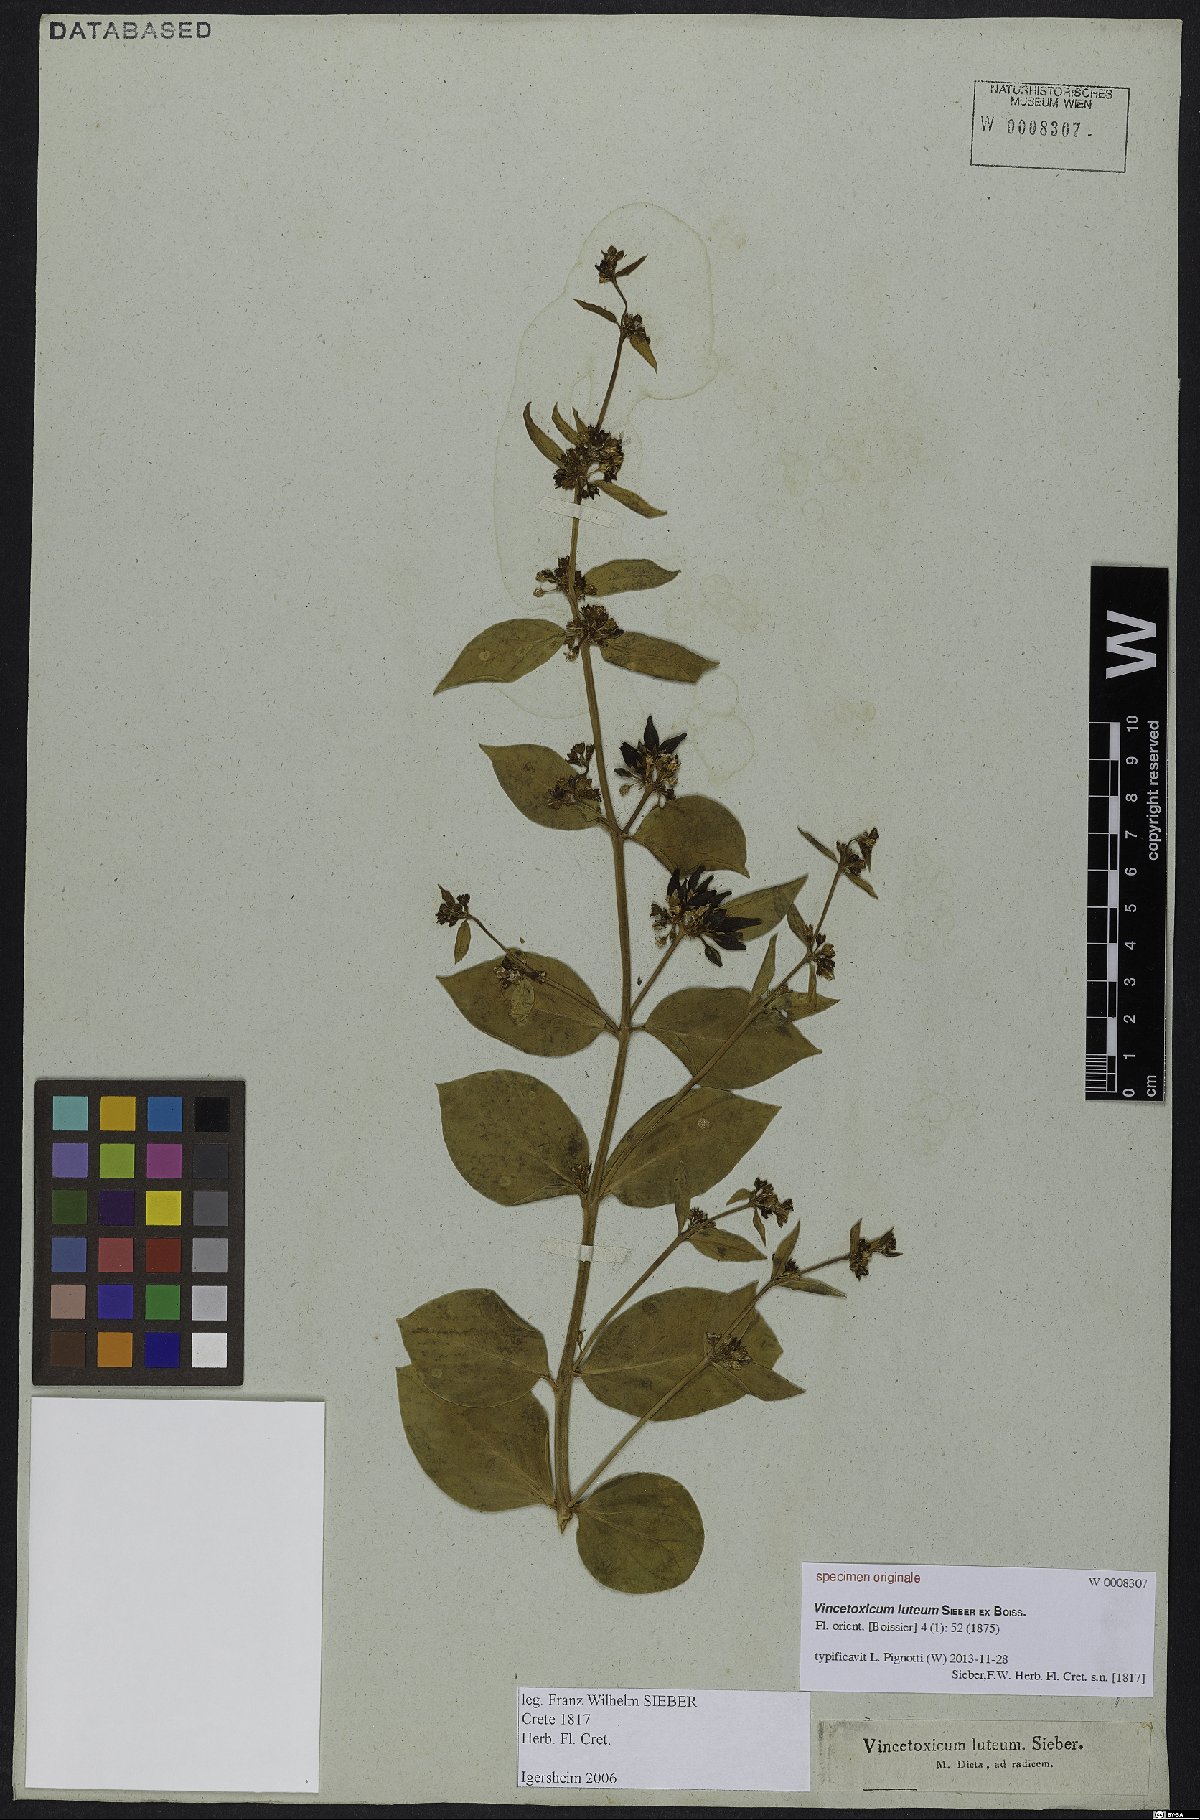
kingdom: Plantae
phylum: Tracheophyta
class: Magnoliopsida
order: Gentianales
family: Apocynaceae
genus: Vincetoxicum
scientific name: Vincetoxicum canescens
